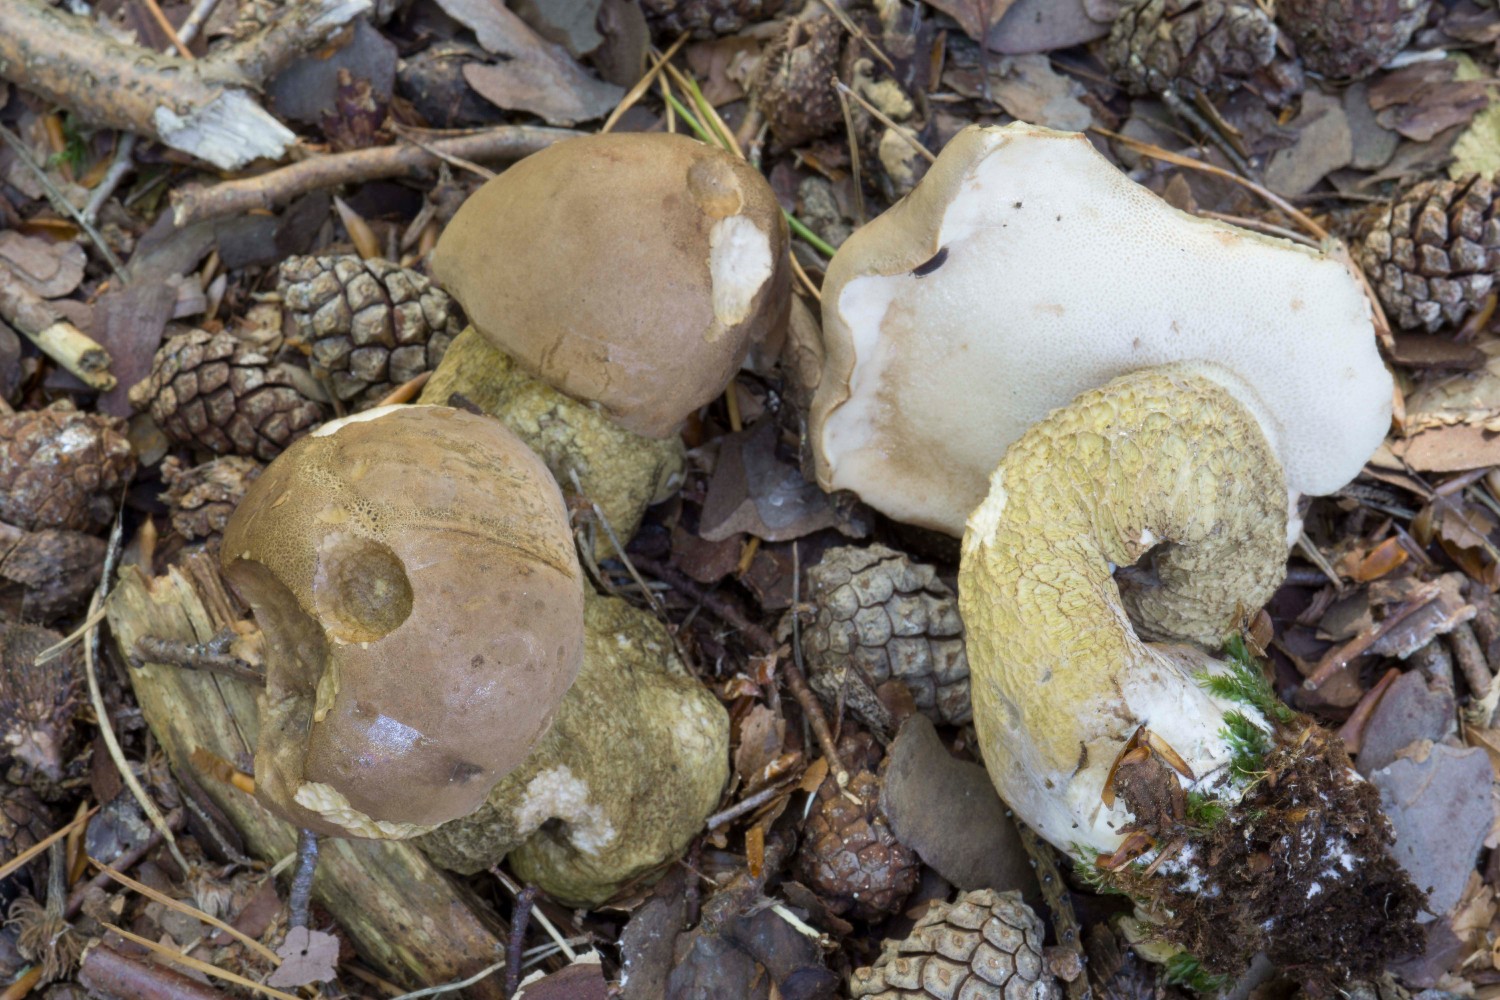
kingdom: Fungi
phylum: Basidiomycota
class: Agaricomycetes
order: Boletales
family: Boletaceae
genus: Tylopilus
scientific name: Tylopilus felleus
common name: galderørhat
